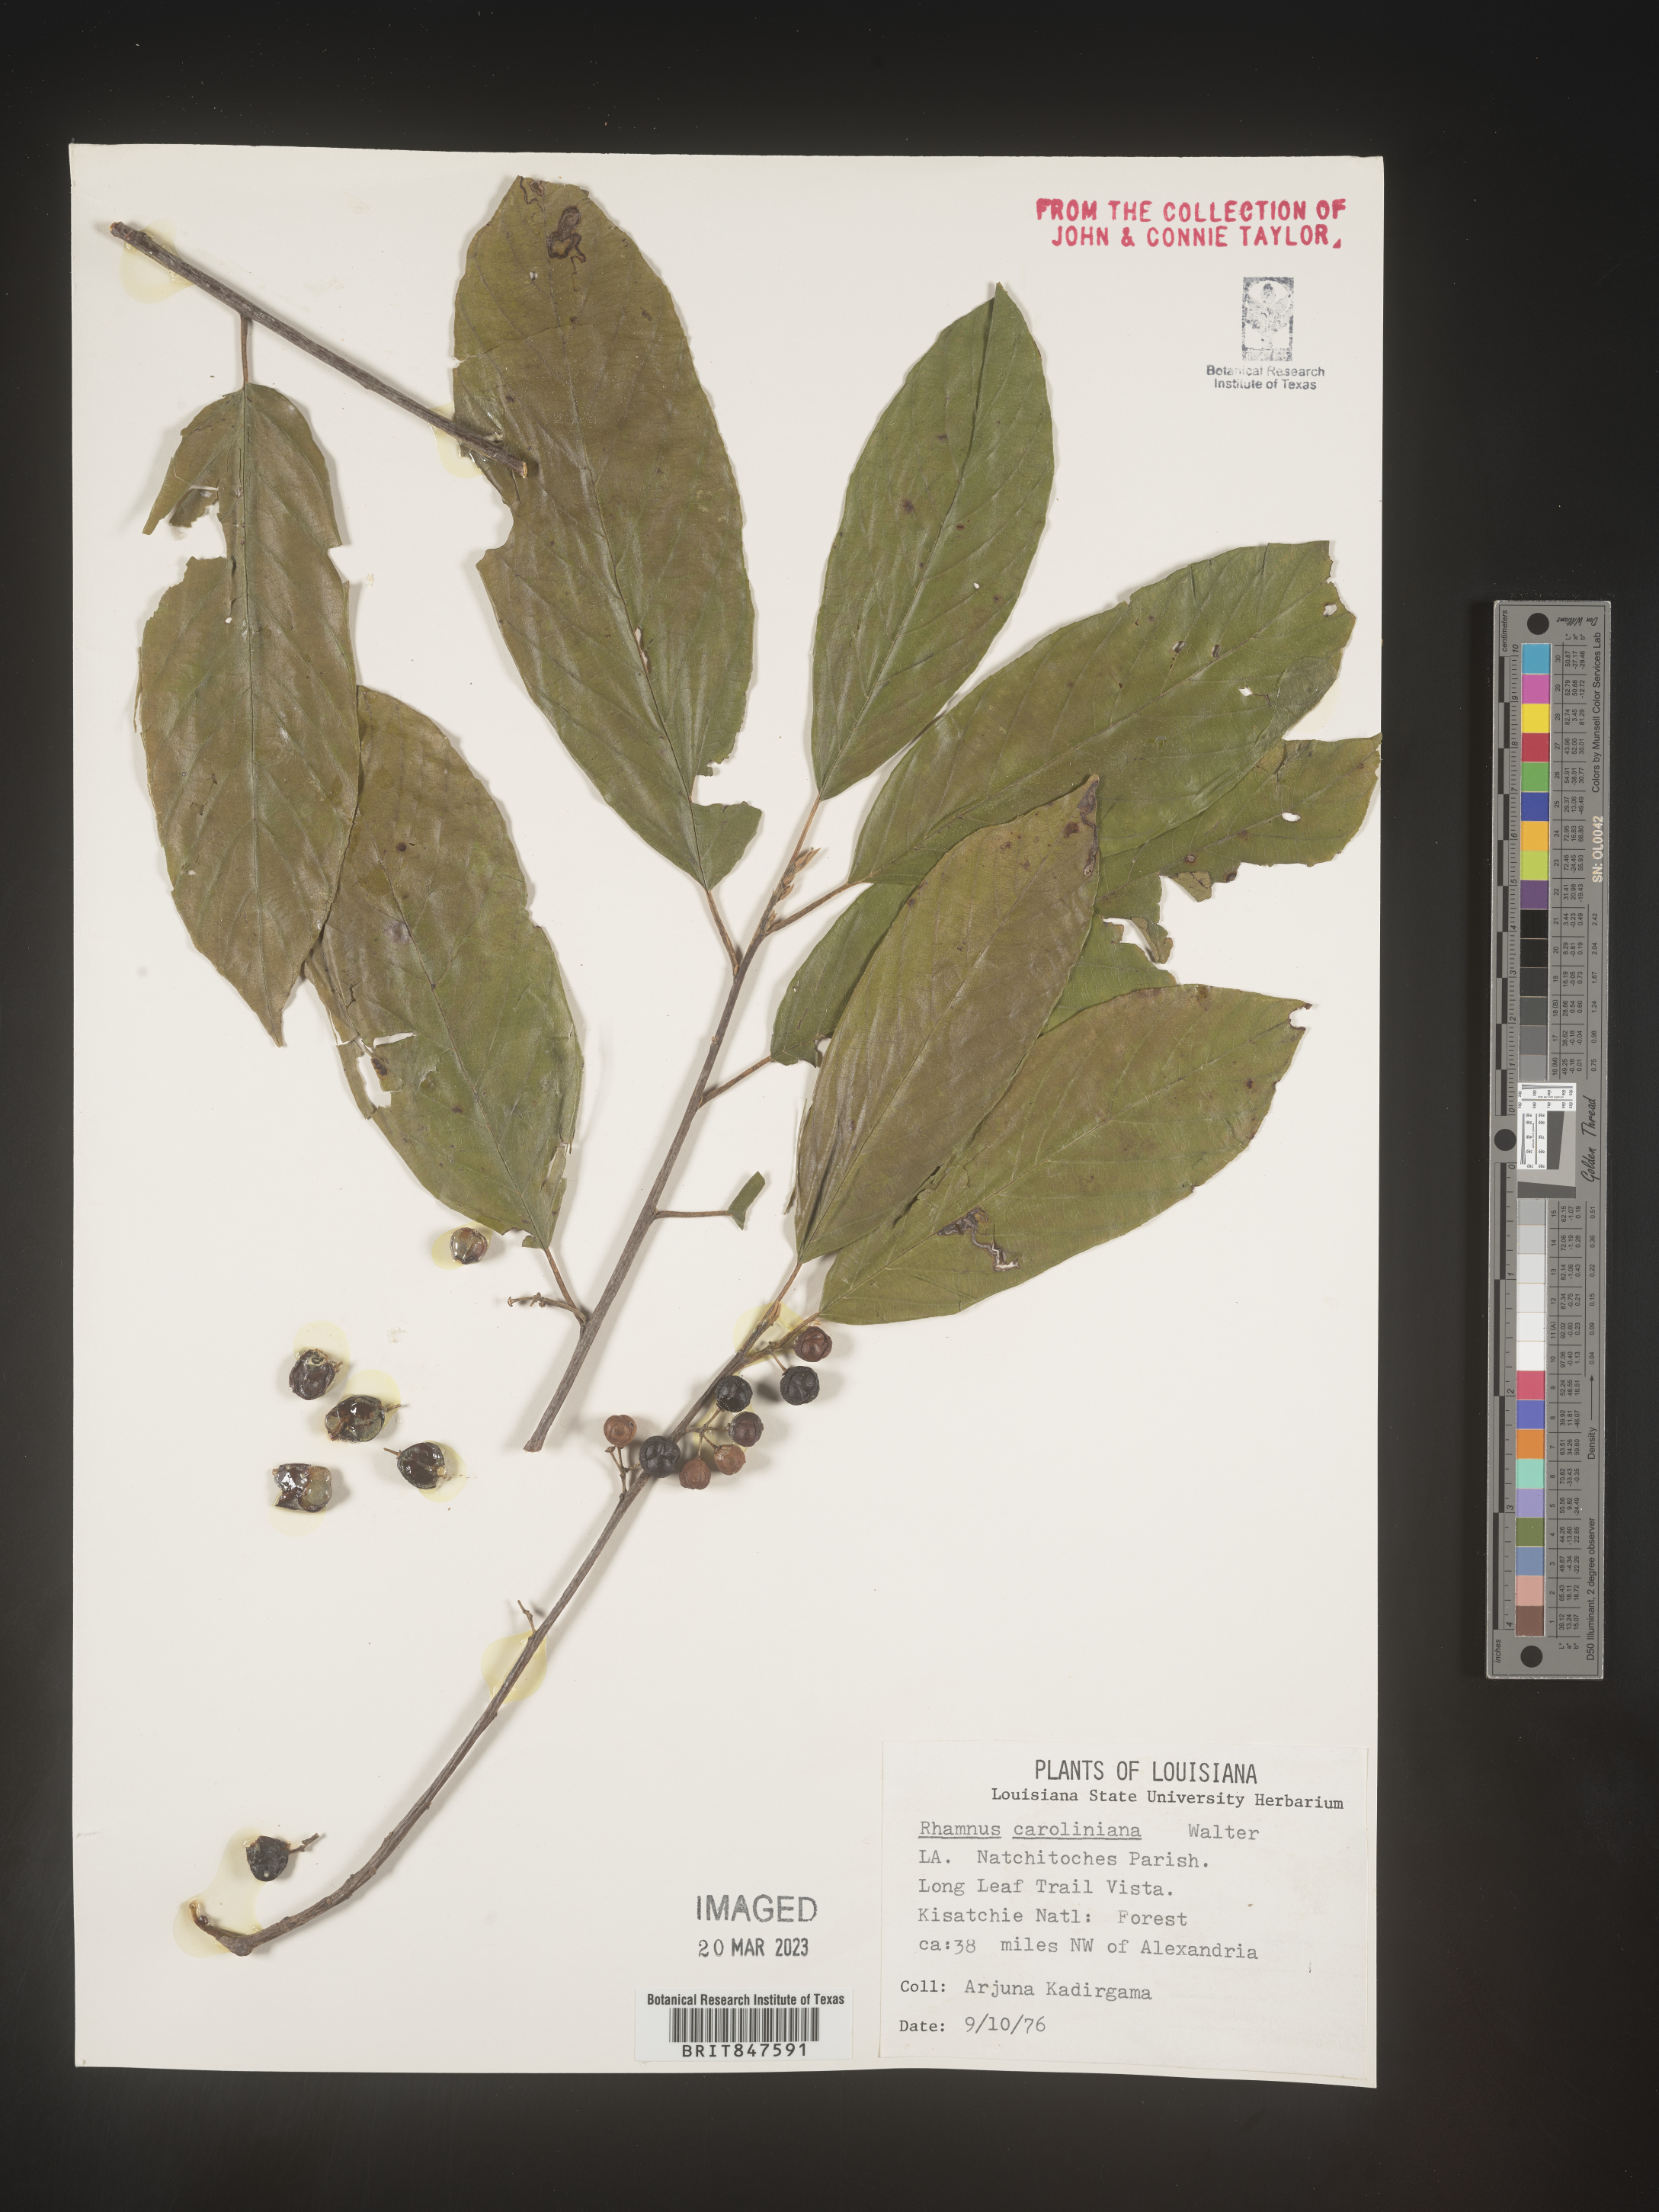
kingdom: Plantae
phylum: Tracheophyta
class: Magnoliopsida
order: Rosales
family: Rhamnaceae
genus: Frangula
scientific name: Frangula caroliniana
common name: Carolina buckthorn
